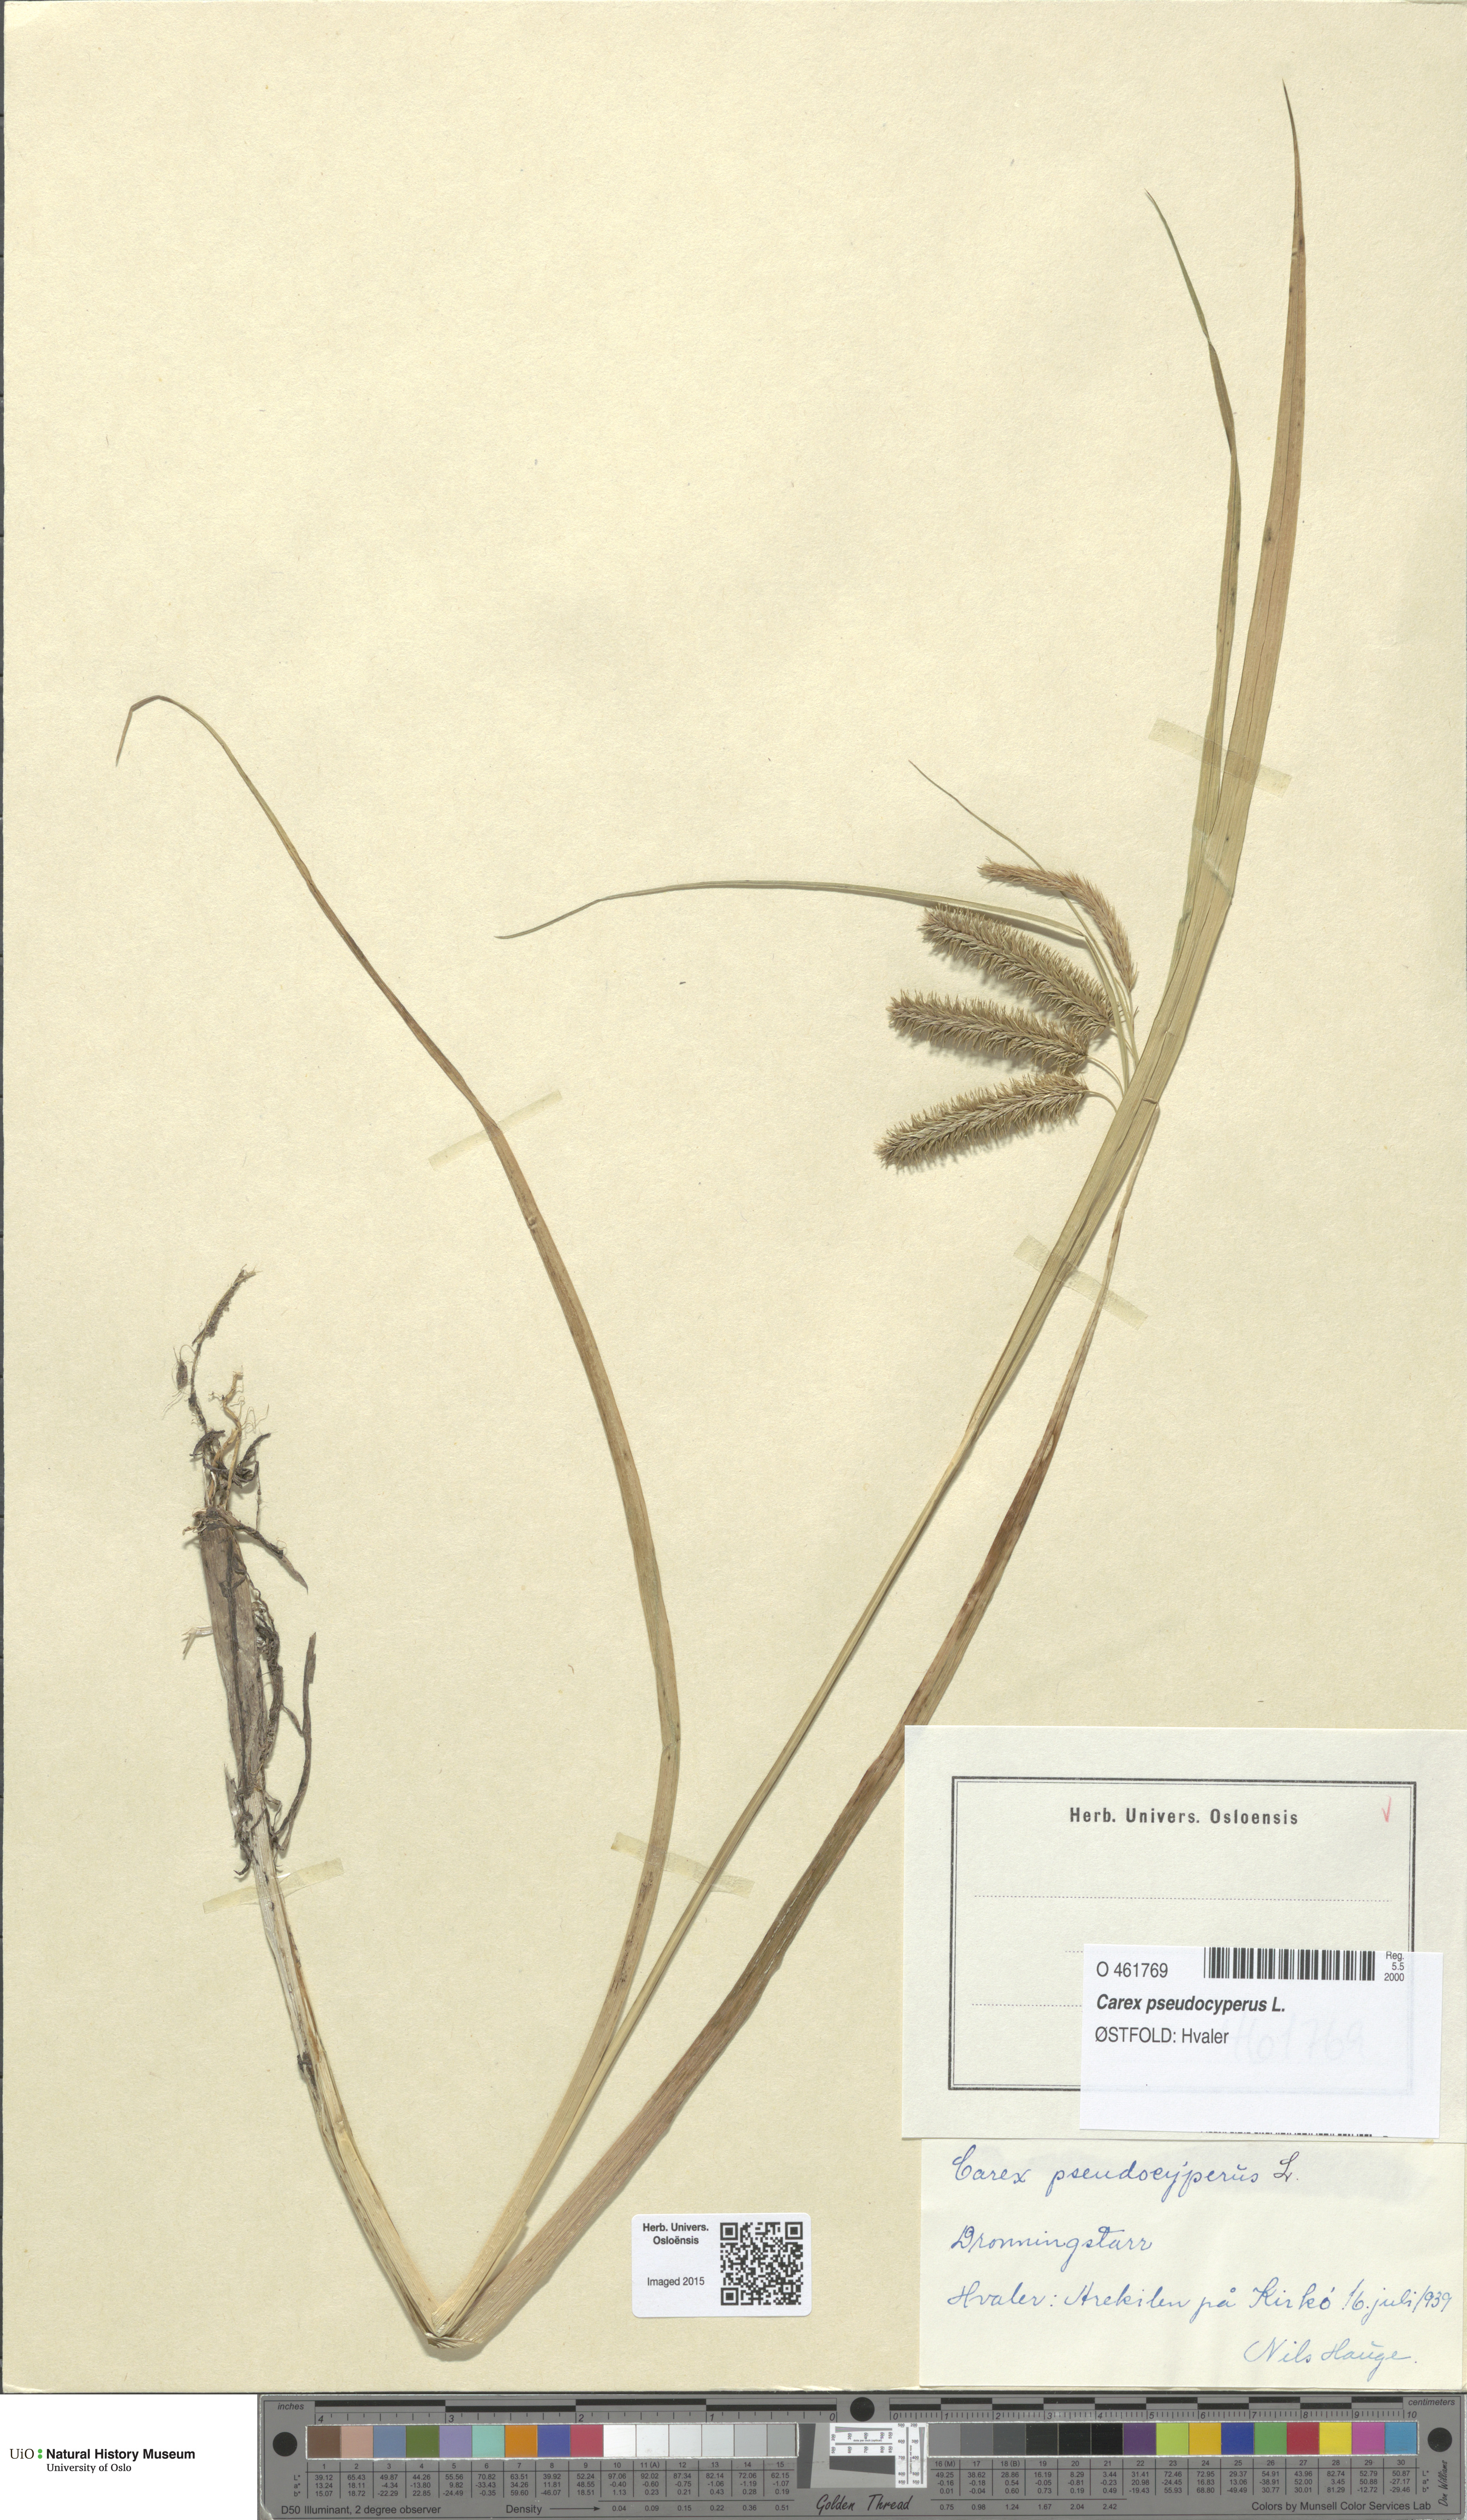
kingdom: Plantae
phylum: Tracheophyta
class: Liliopsida
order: Poales
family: Cyperaceae
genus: Carex
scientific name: Carex pseudocyperus
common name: Cyperus sedge
